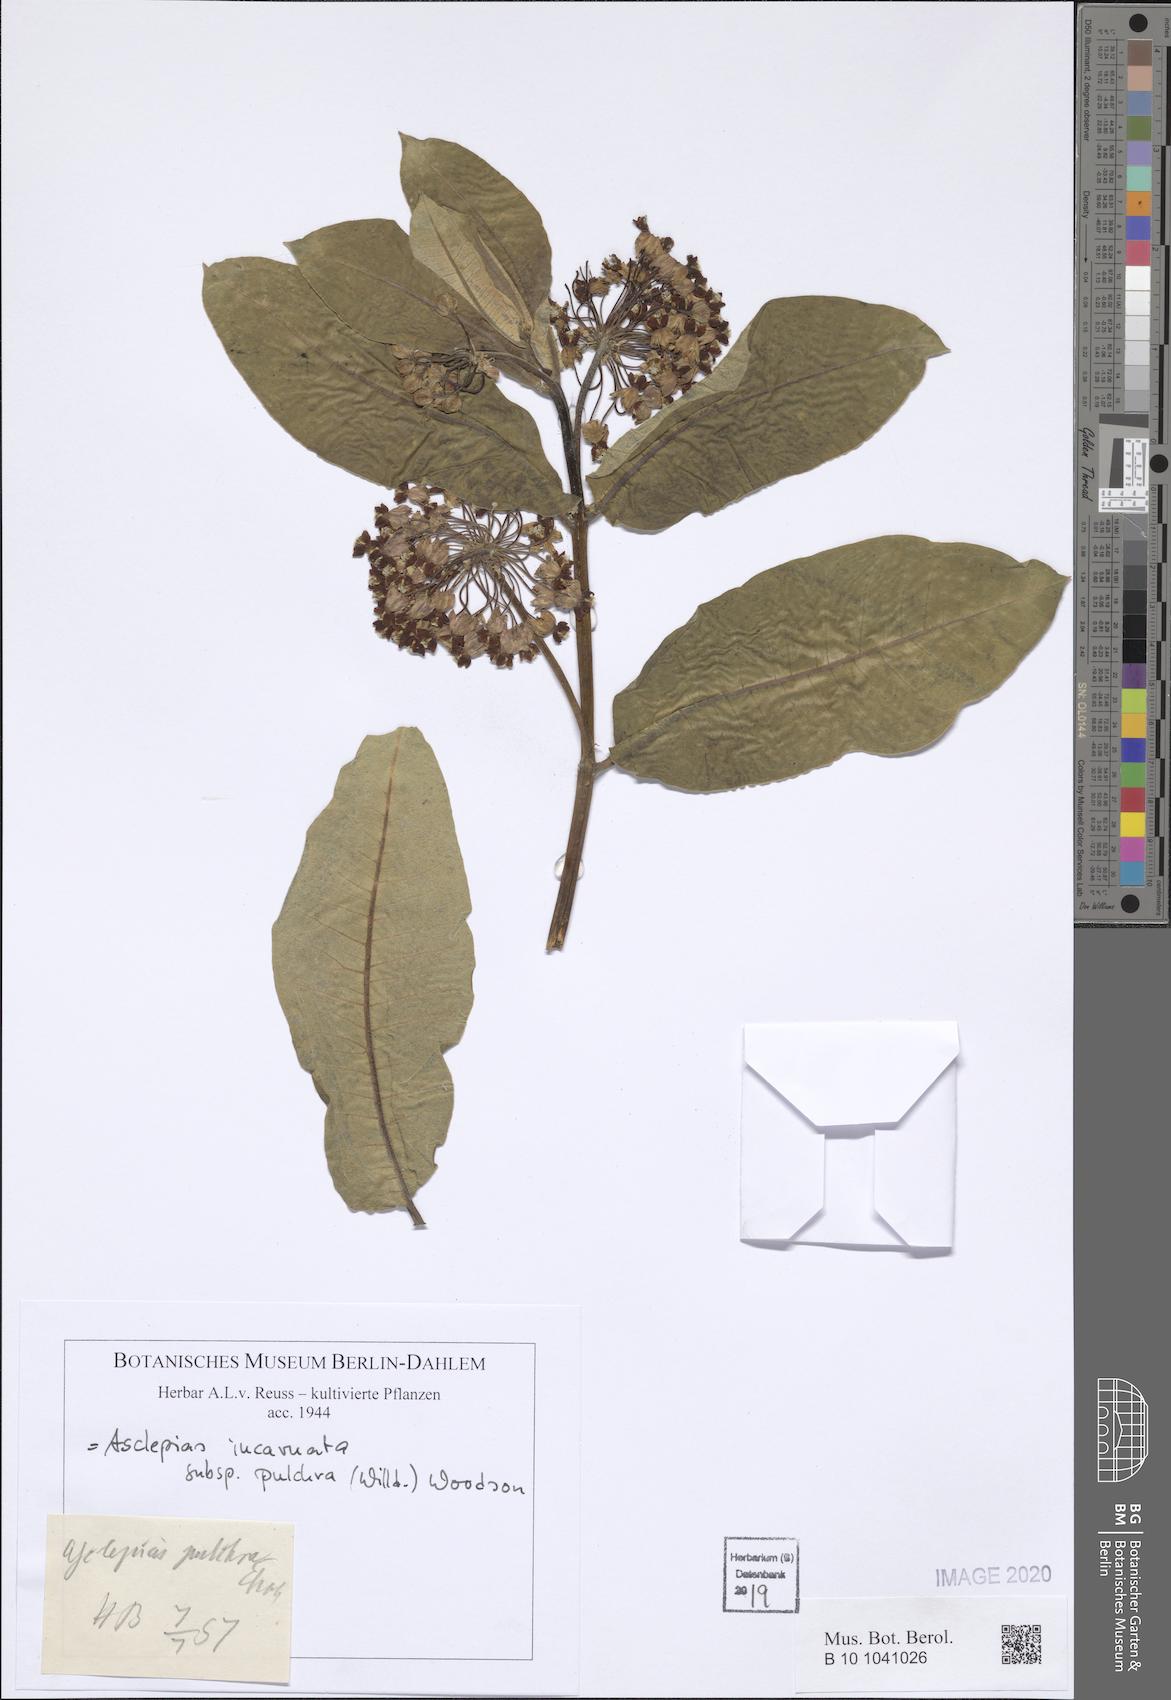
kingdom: Plantae
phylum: Tracheophyta
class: Magnoliopsida
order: Gentianales
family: Apocynaceae
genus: Asclepias
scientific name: Asclepias incarnata
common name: Swamp milkweed
